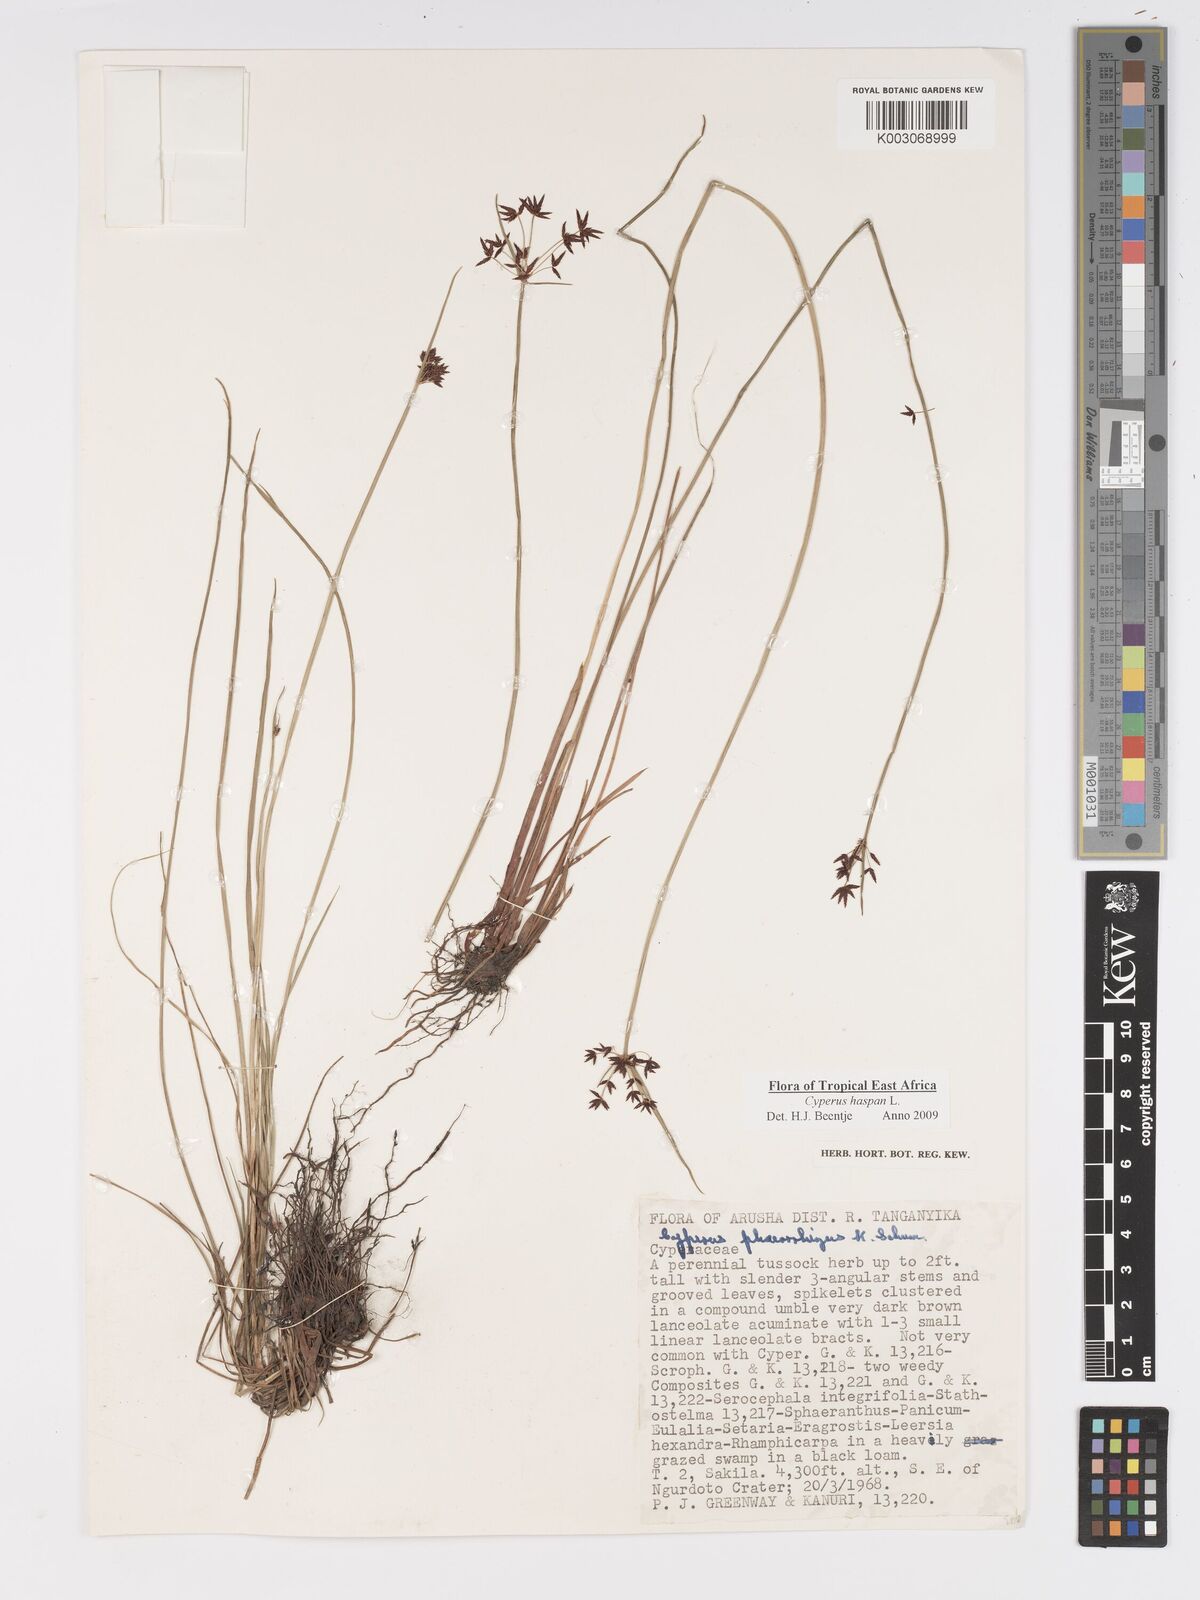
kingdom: Plantae
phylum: Tracheophyta
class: Liliopsida
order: Poales
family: Cyperaceae
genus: Cyperus
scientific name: Cyperus platycaulis
